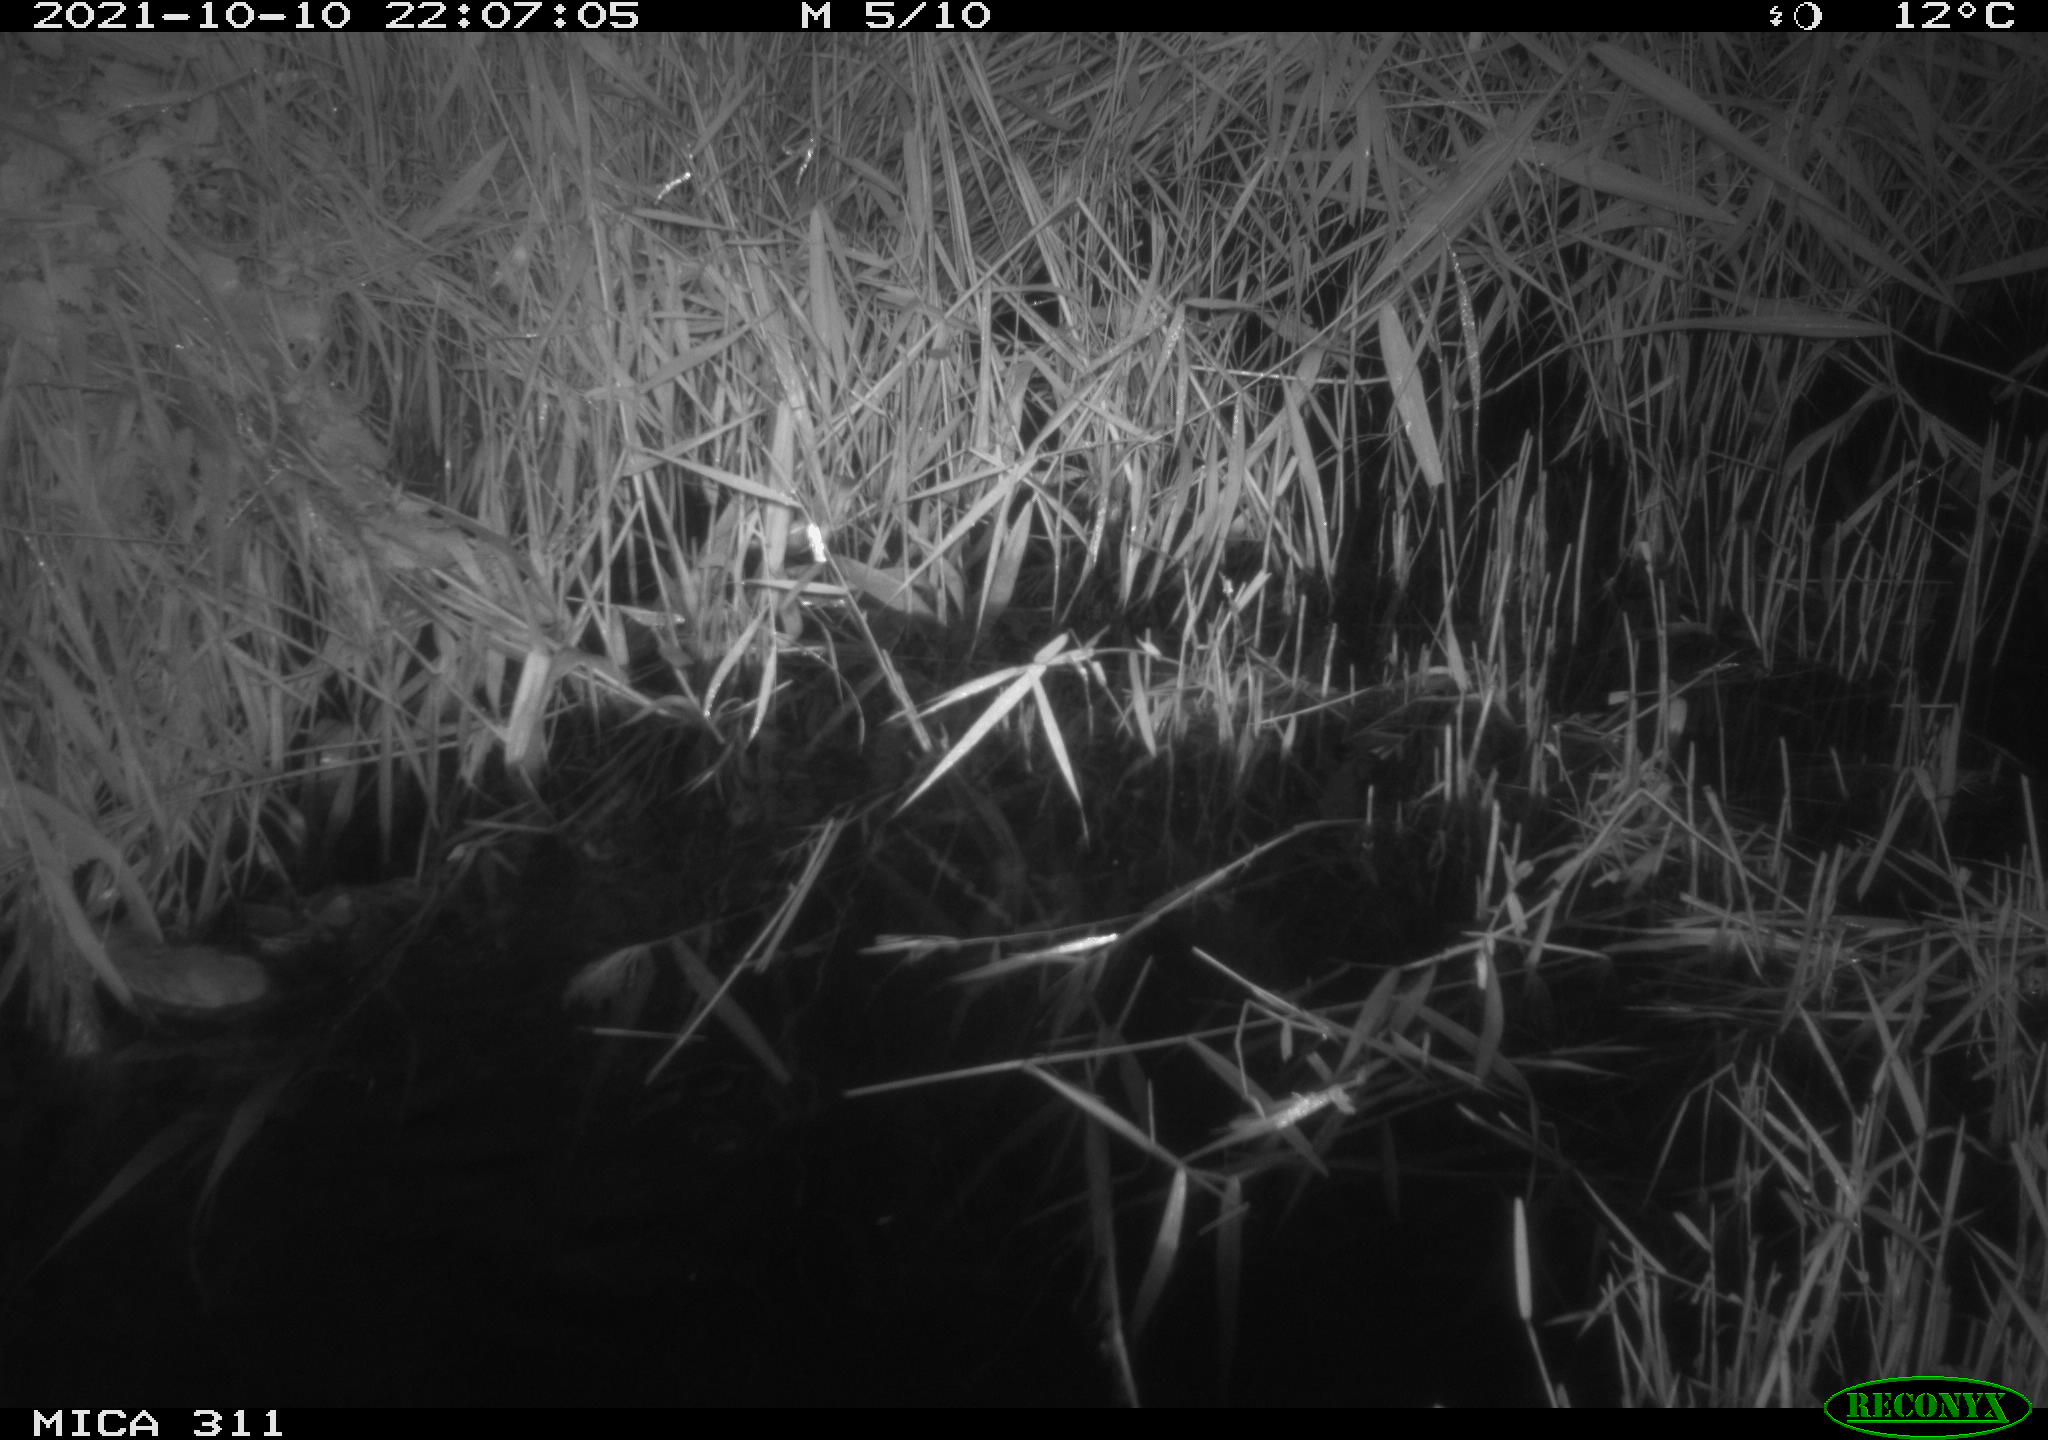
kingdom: Animalia
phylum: Chordata
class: Mammalia
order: Rodentia
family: Muridae
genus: Rattus
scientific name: Rattus norvegicus
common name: Brown rat
